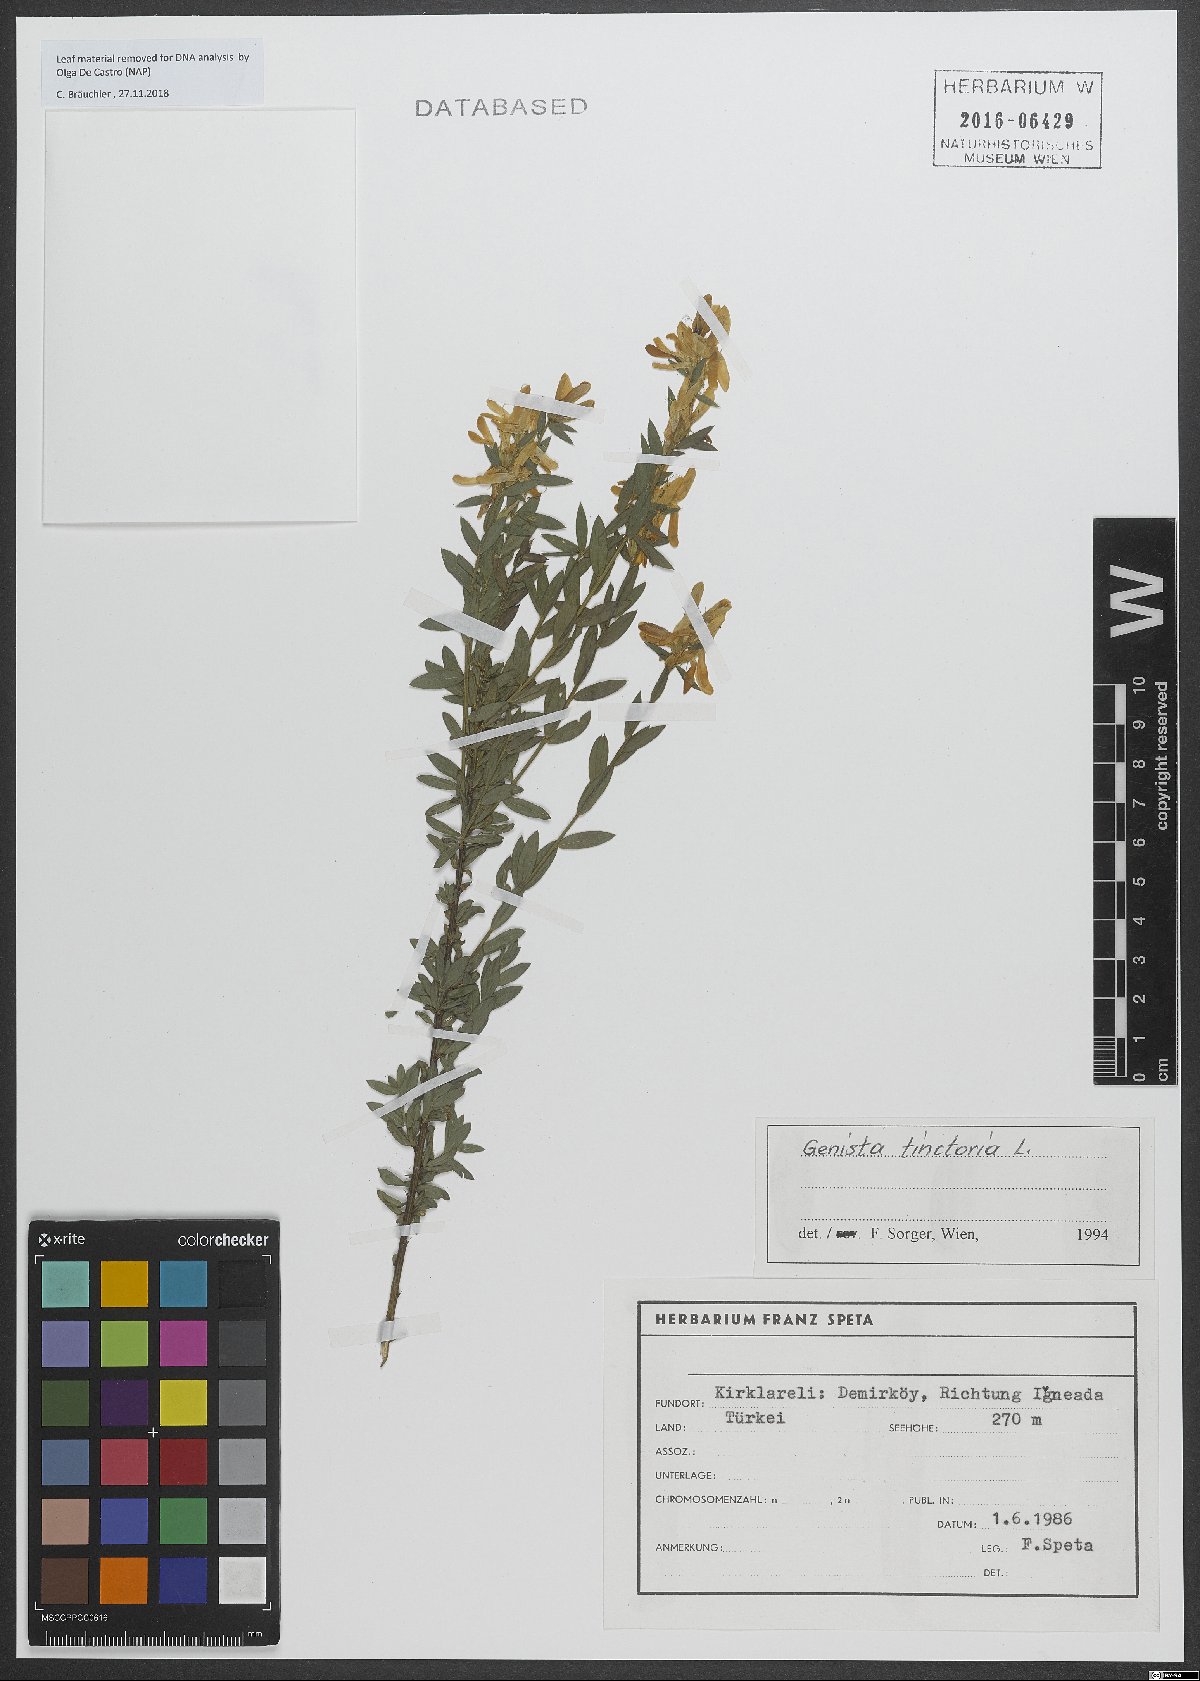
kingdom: Plantae
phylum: Tracheophyta
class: Magnoliopsida
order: Fabales
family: Fabaceae
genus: Genista
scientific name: Genista tinctoria
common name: Dyer's greenweed
